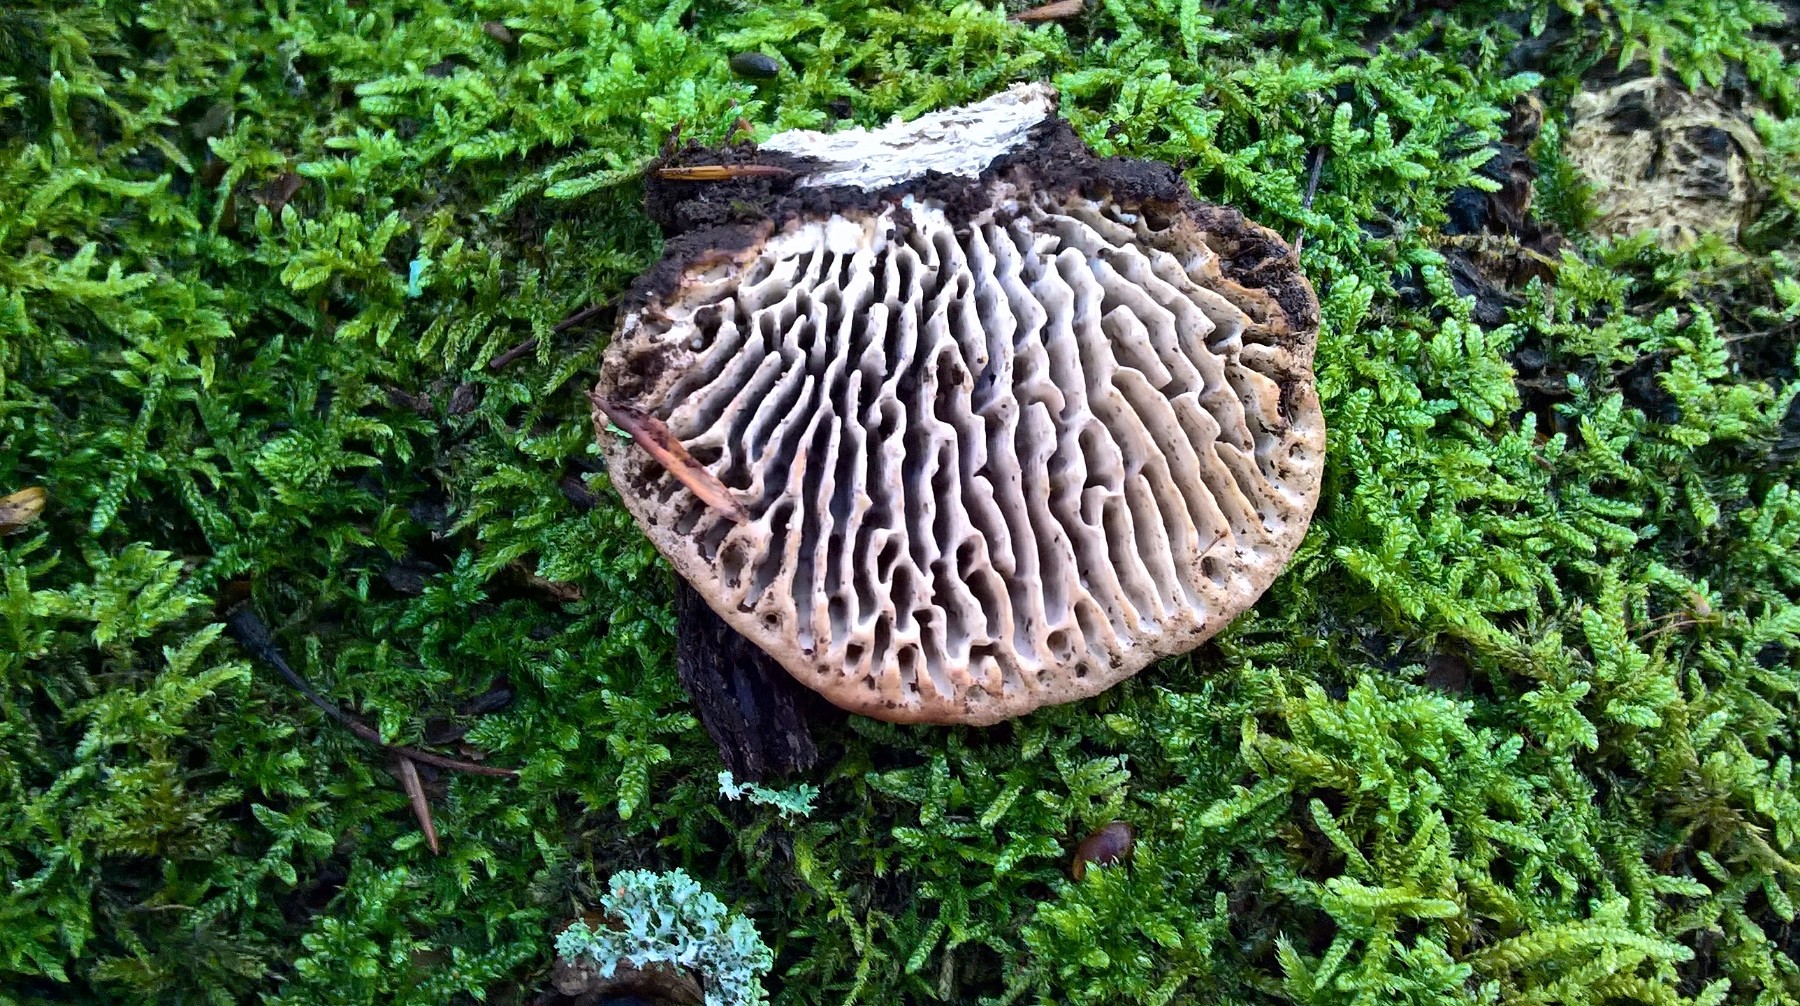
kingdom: Fungi
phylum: Basidiomycota
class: Agaricomycetes
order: Polyporales
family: Fomitopsidaceae
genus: Daedalea
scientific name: Daedalea quercina
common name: ege-labyrintsvamp
